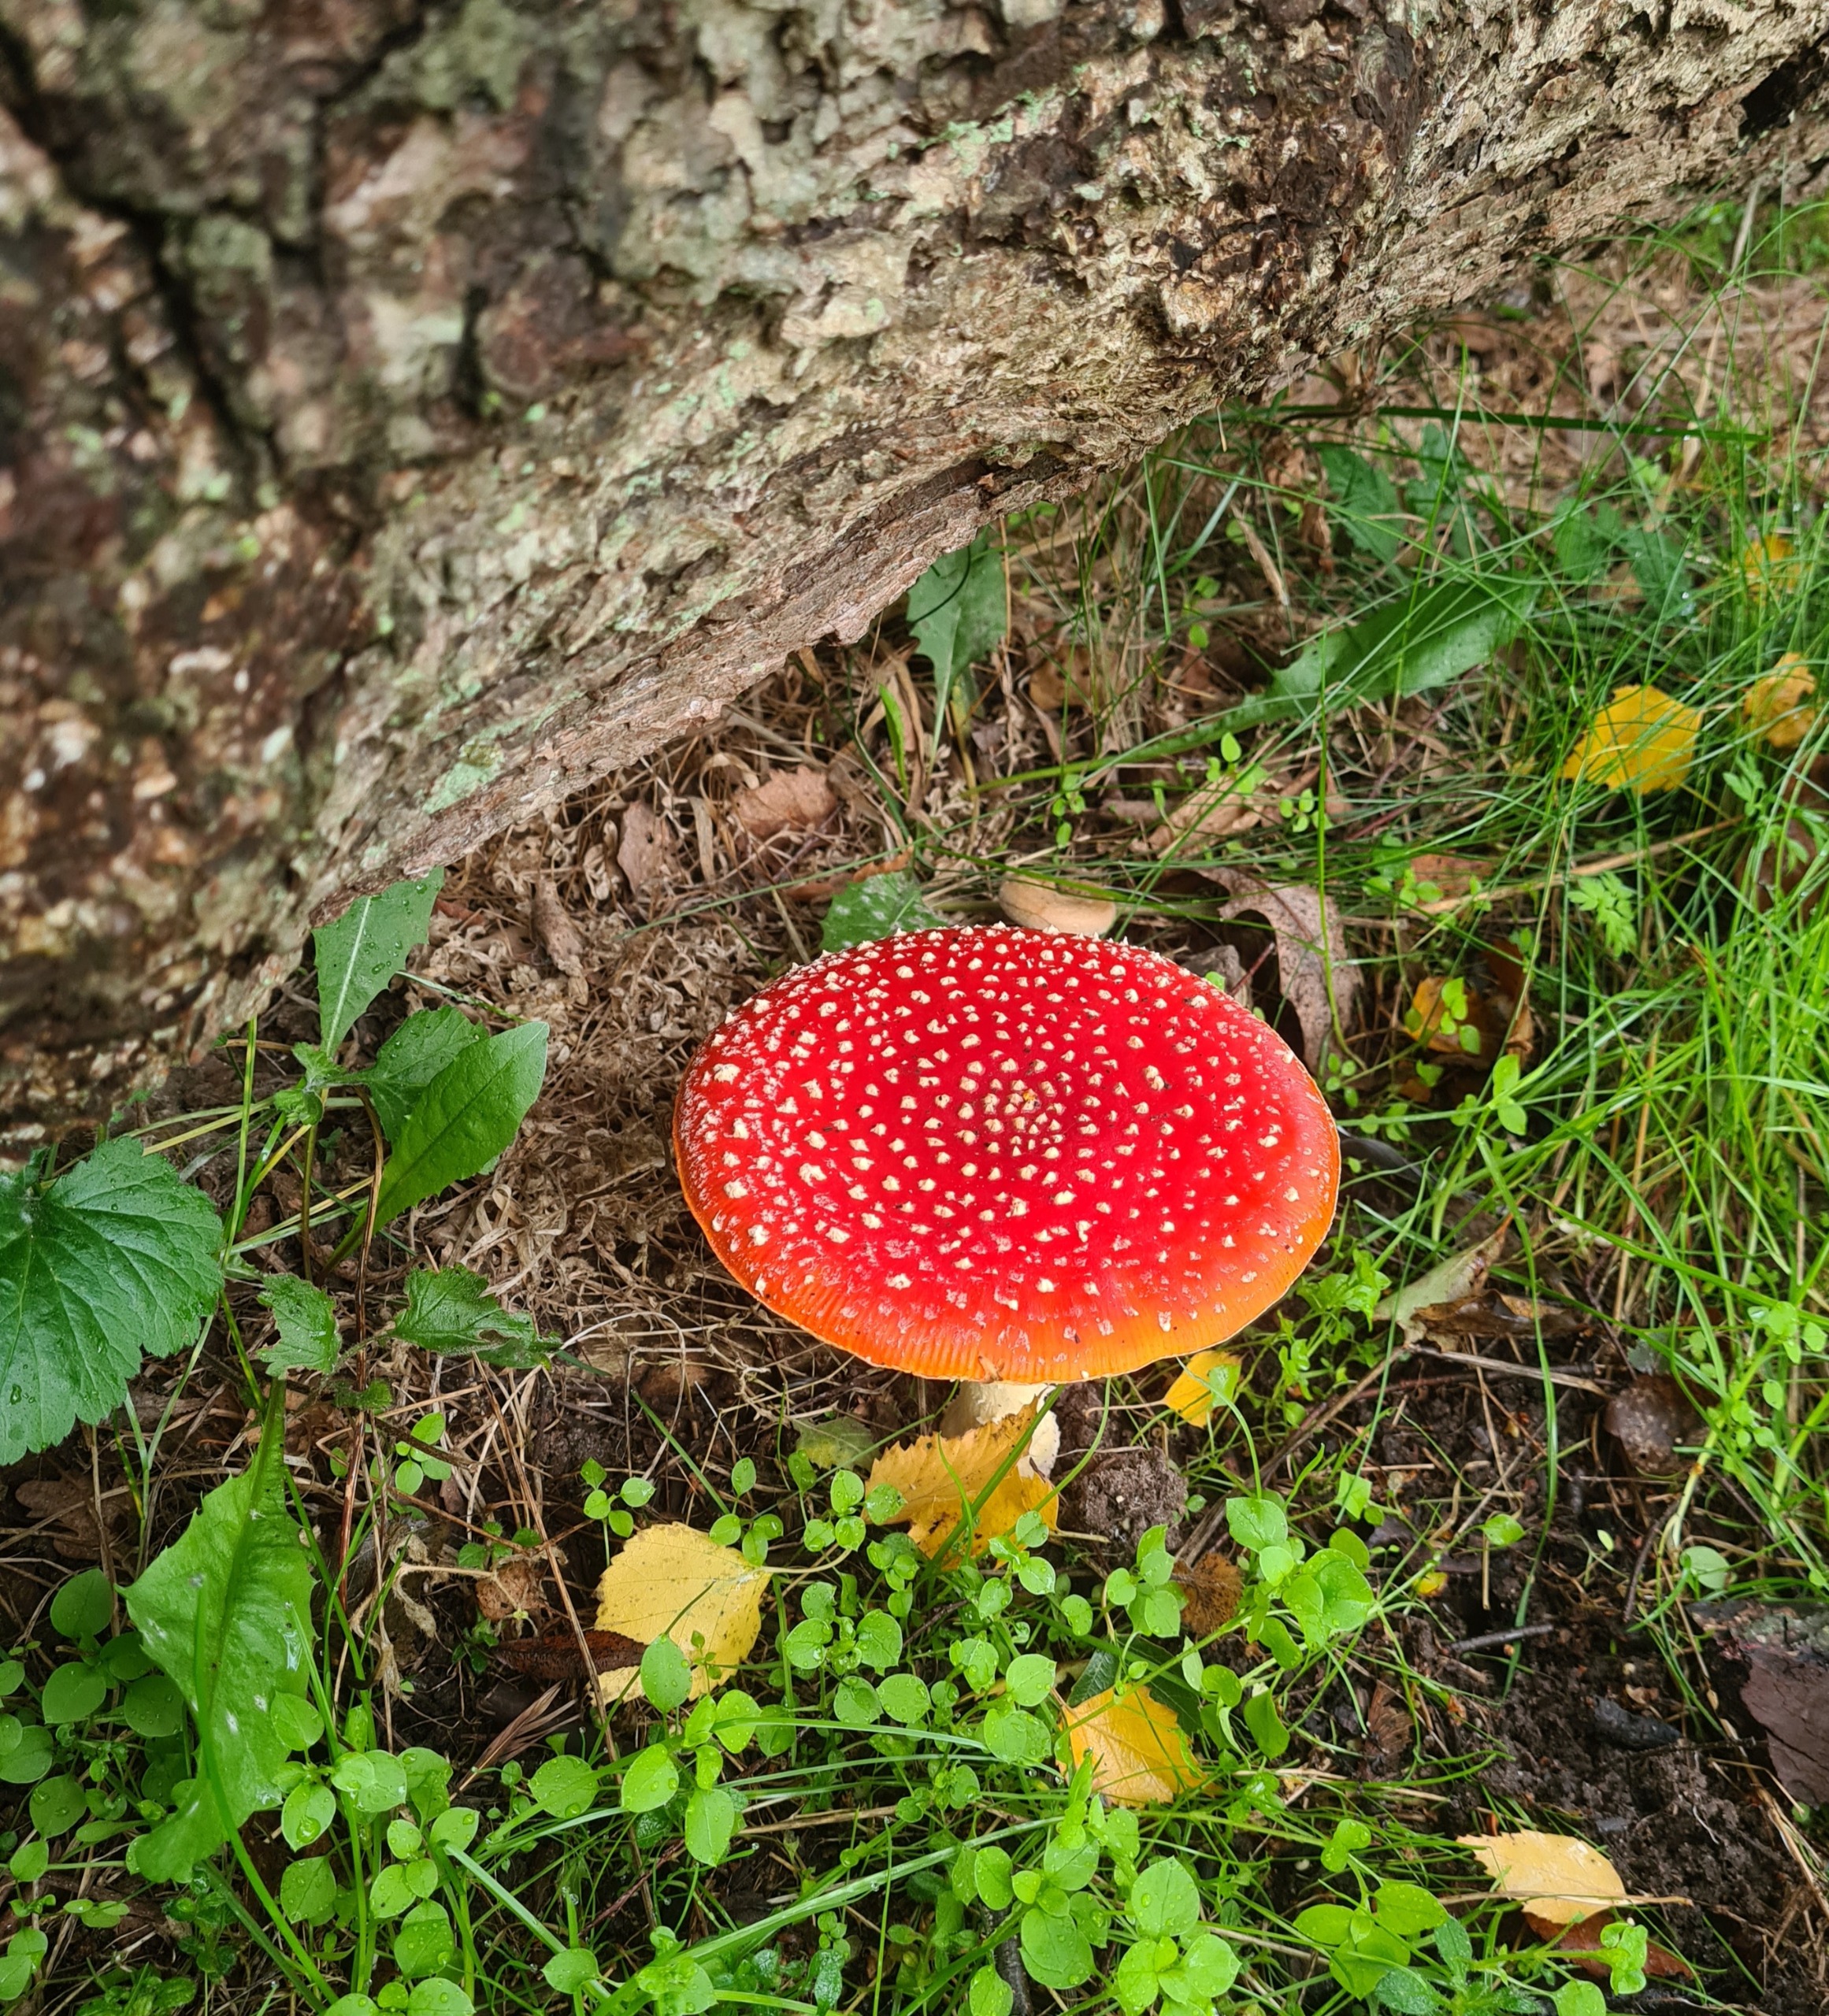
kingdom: Fungi
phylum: Basidiomycota
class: Agaricomycetes
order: Agaricales
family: Amanitaceae
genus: Amanita
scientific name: Amanita muscaria
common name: Rød fluesvamp
